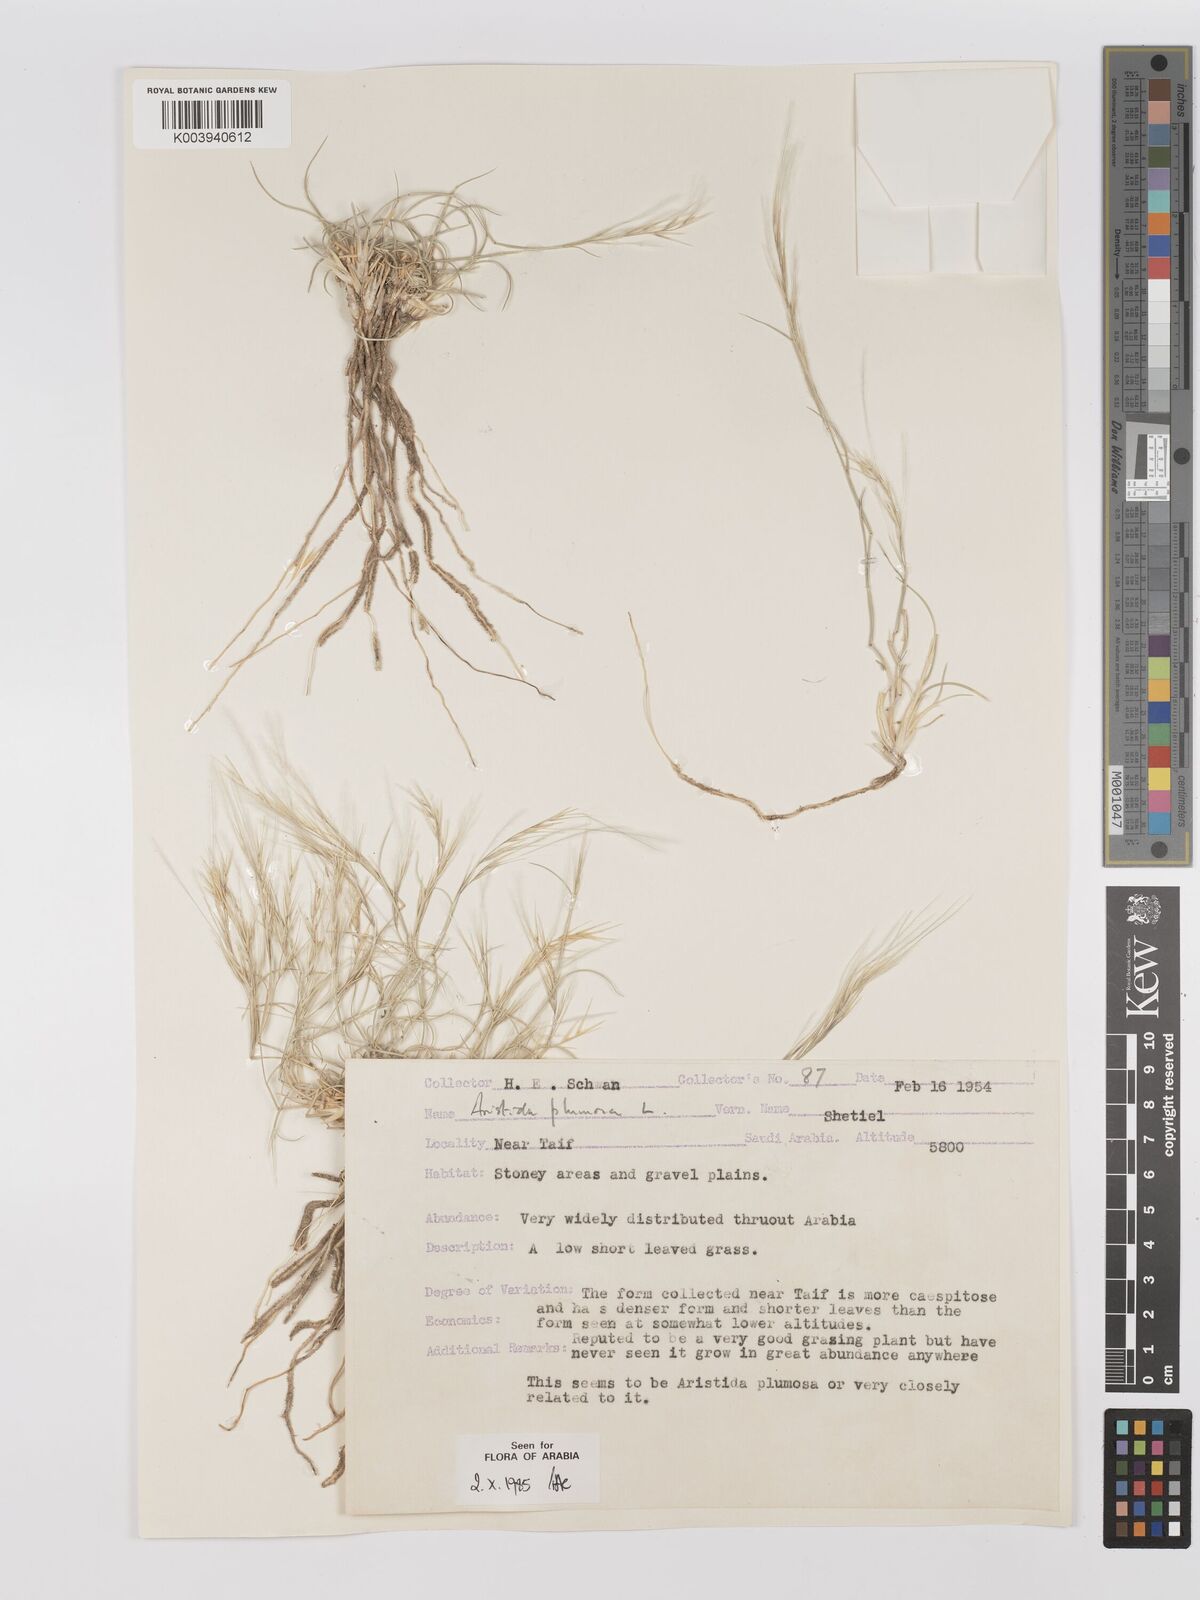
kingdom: Plantae
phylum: Tracheophyta
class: Liliopsida
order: Poales
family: Poaceae
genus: Stipagrostis
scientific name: Stipagrostis plumosa
